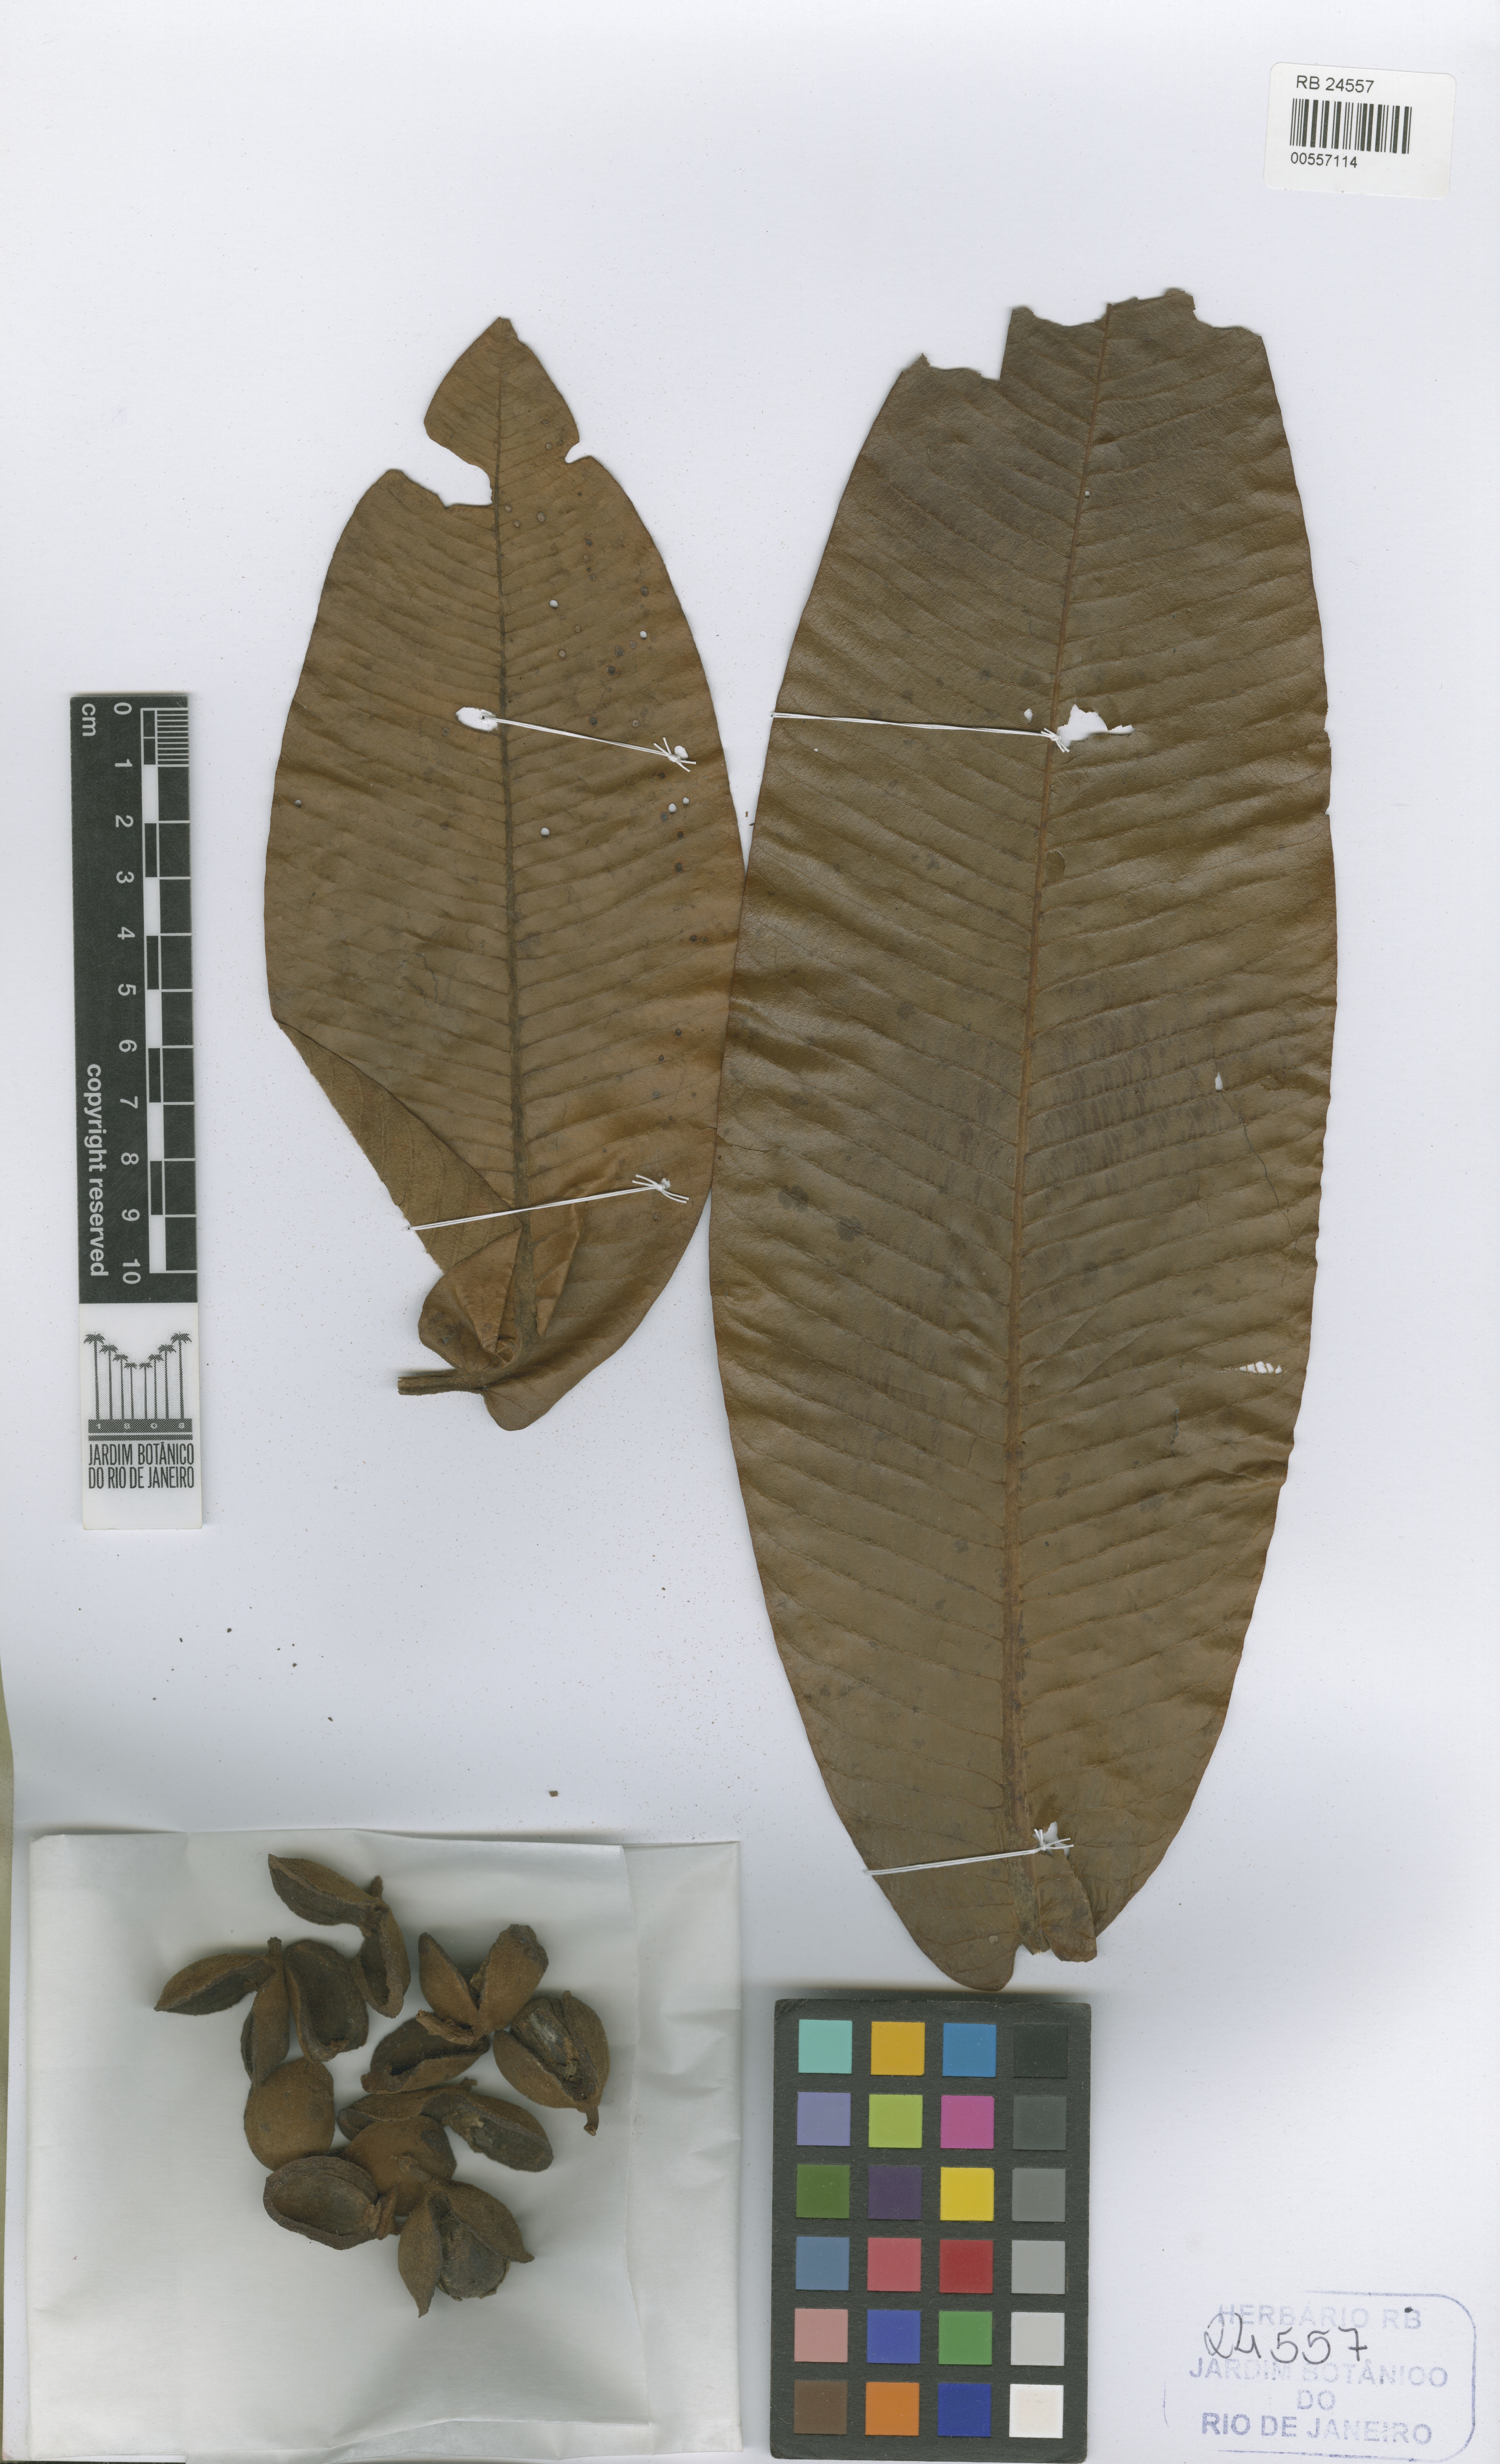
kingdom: Plantae
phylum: Tracheophyta
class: Magnoliopsida
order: Magnoliales
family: Myristicaceae
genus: Virola
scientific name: Virola multinervia
